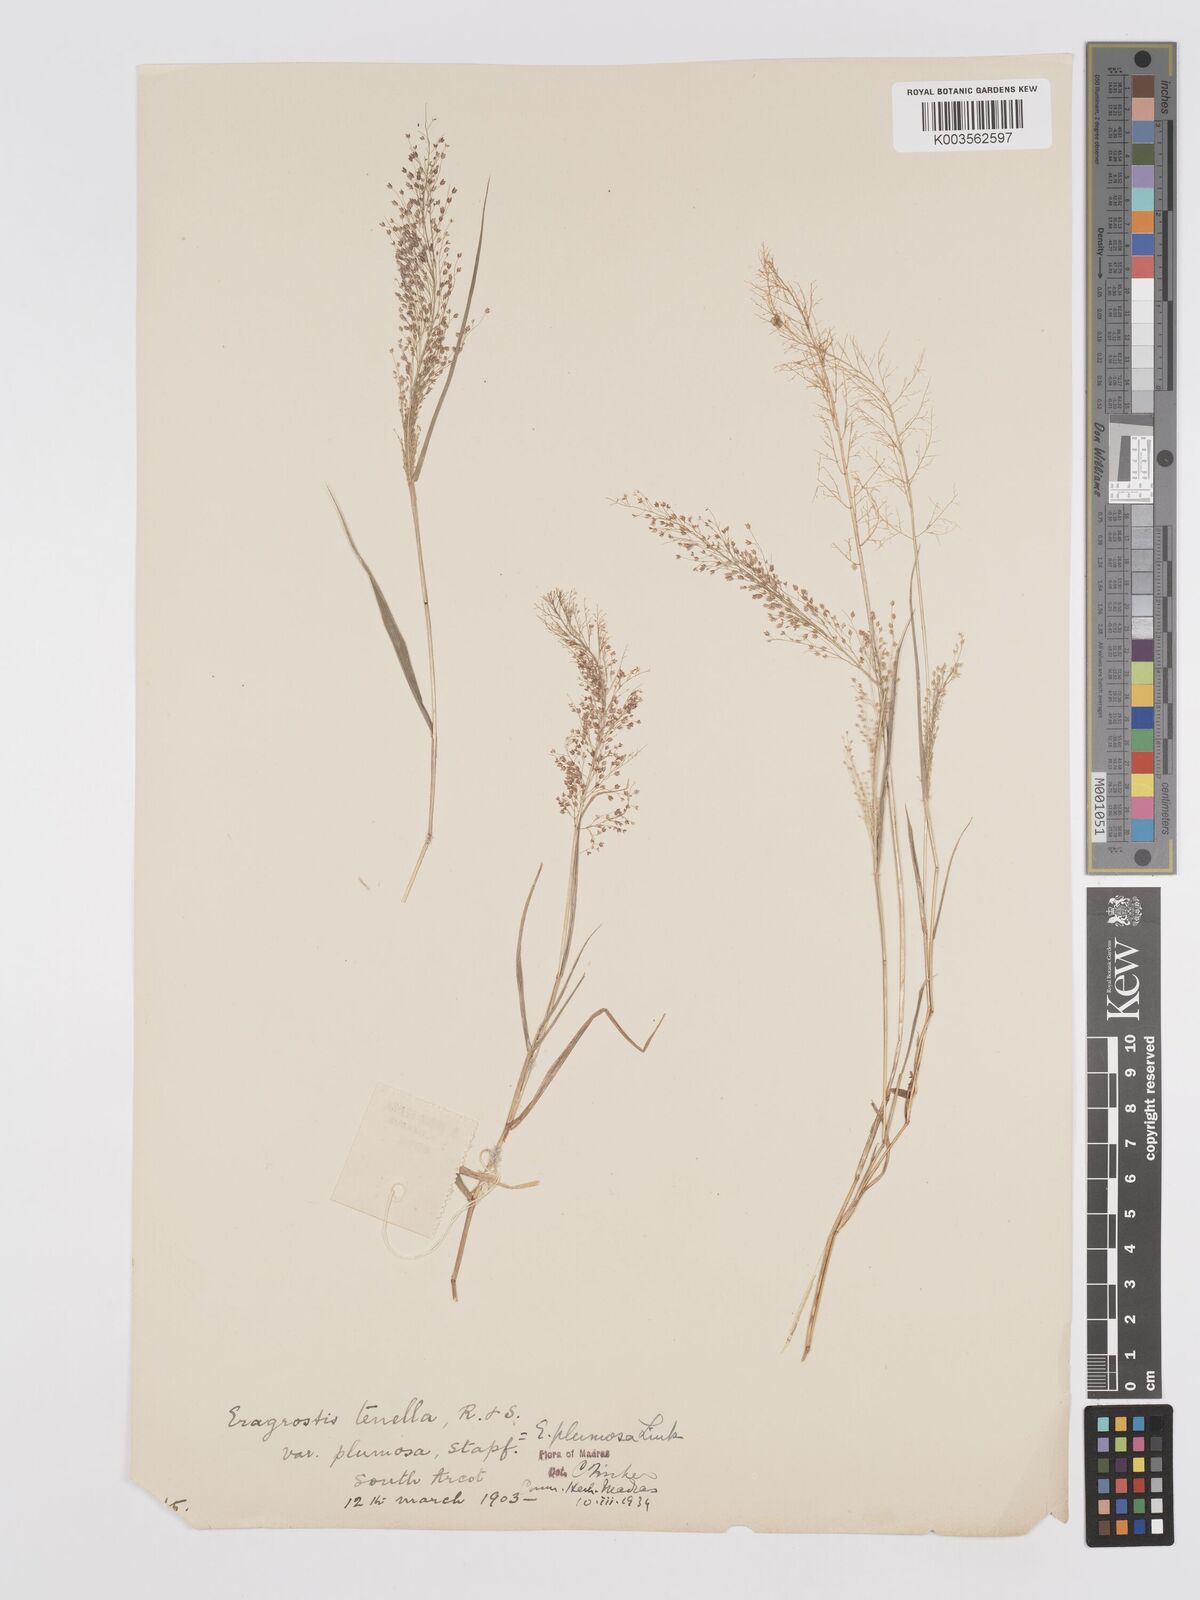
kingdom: Plantae
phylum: Tracheophyta
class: Liliopsida
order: Poales
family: Poaceae
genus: Eragrostis
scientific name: Eragrostis tenella
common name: Japanese lovegrass
